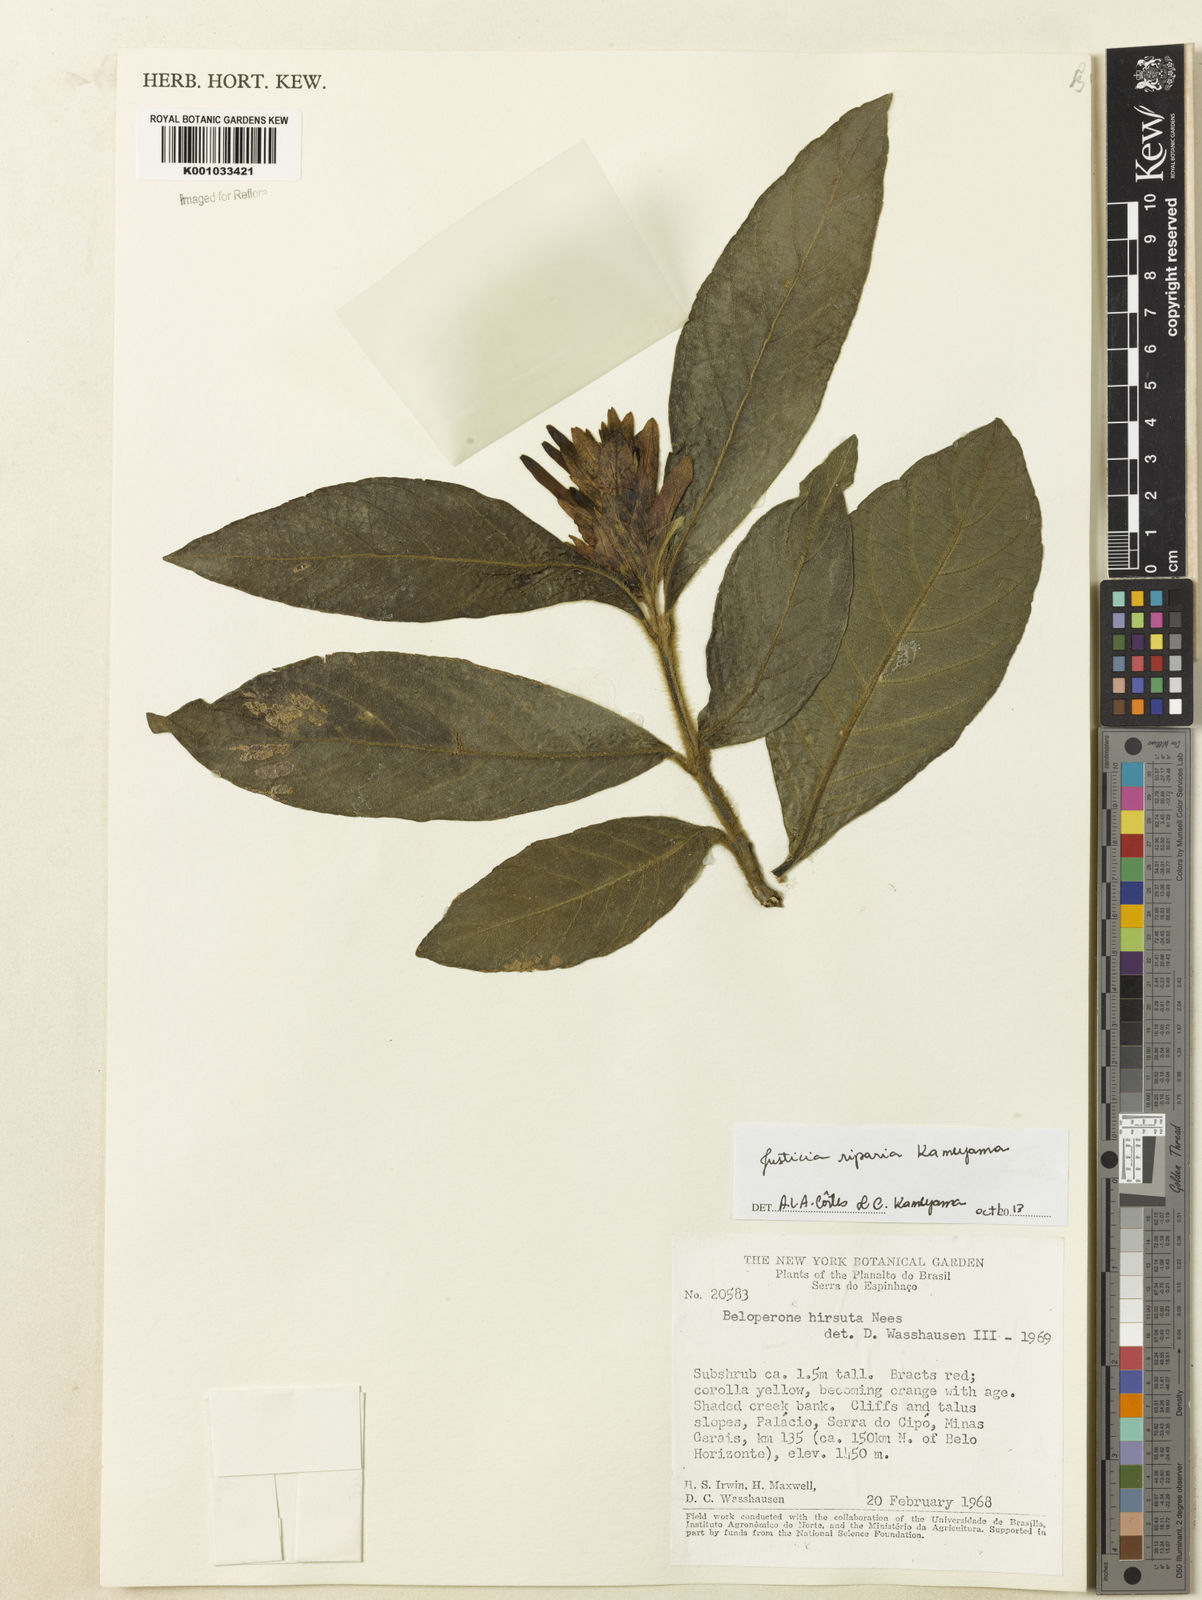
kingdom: Plantae
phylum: Tracheophyta
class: Magnoliopsida
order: Lamiales
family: Acanthaceae
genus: Justicia
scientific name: Justicia riparia
